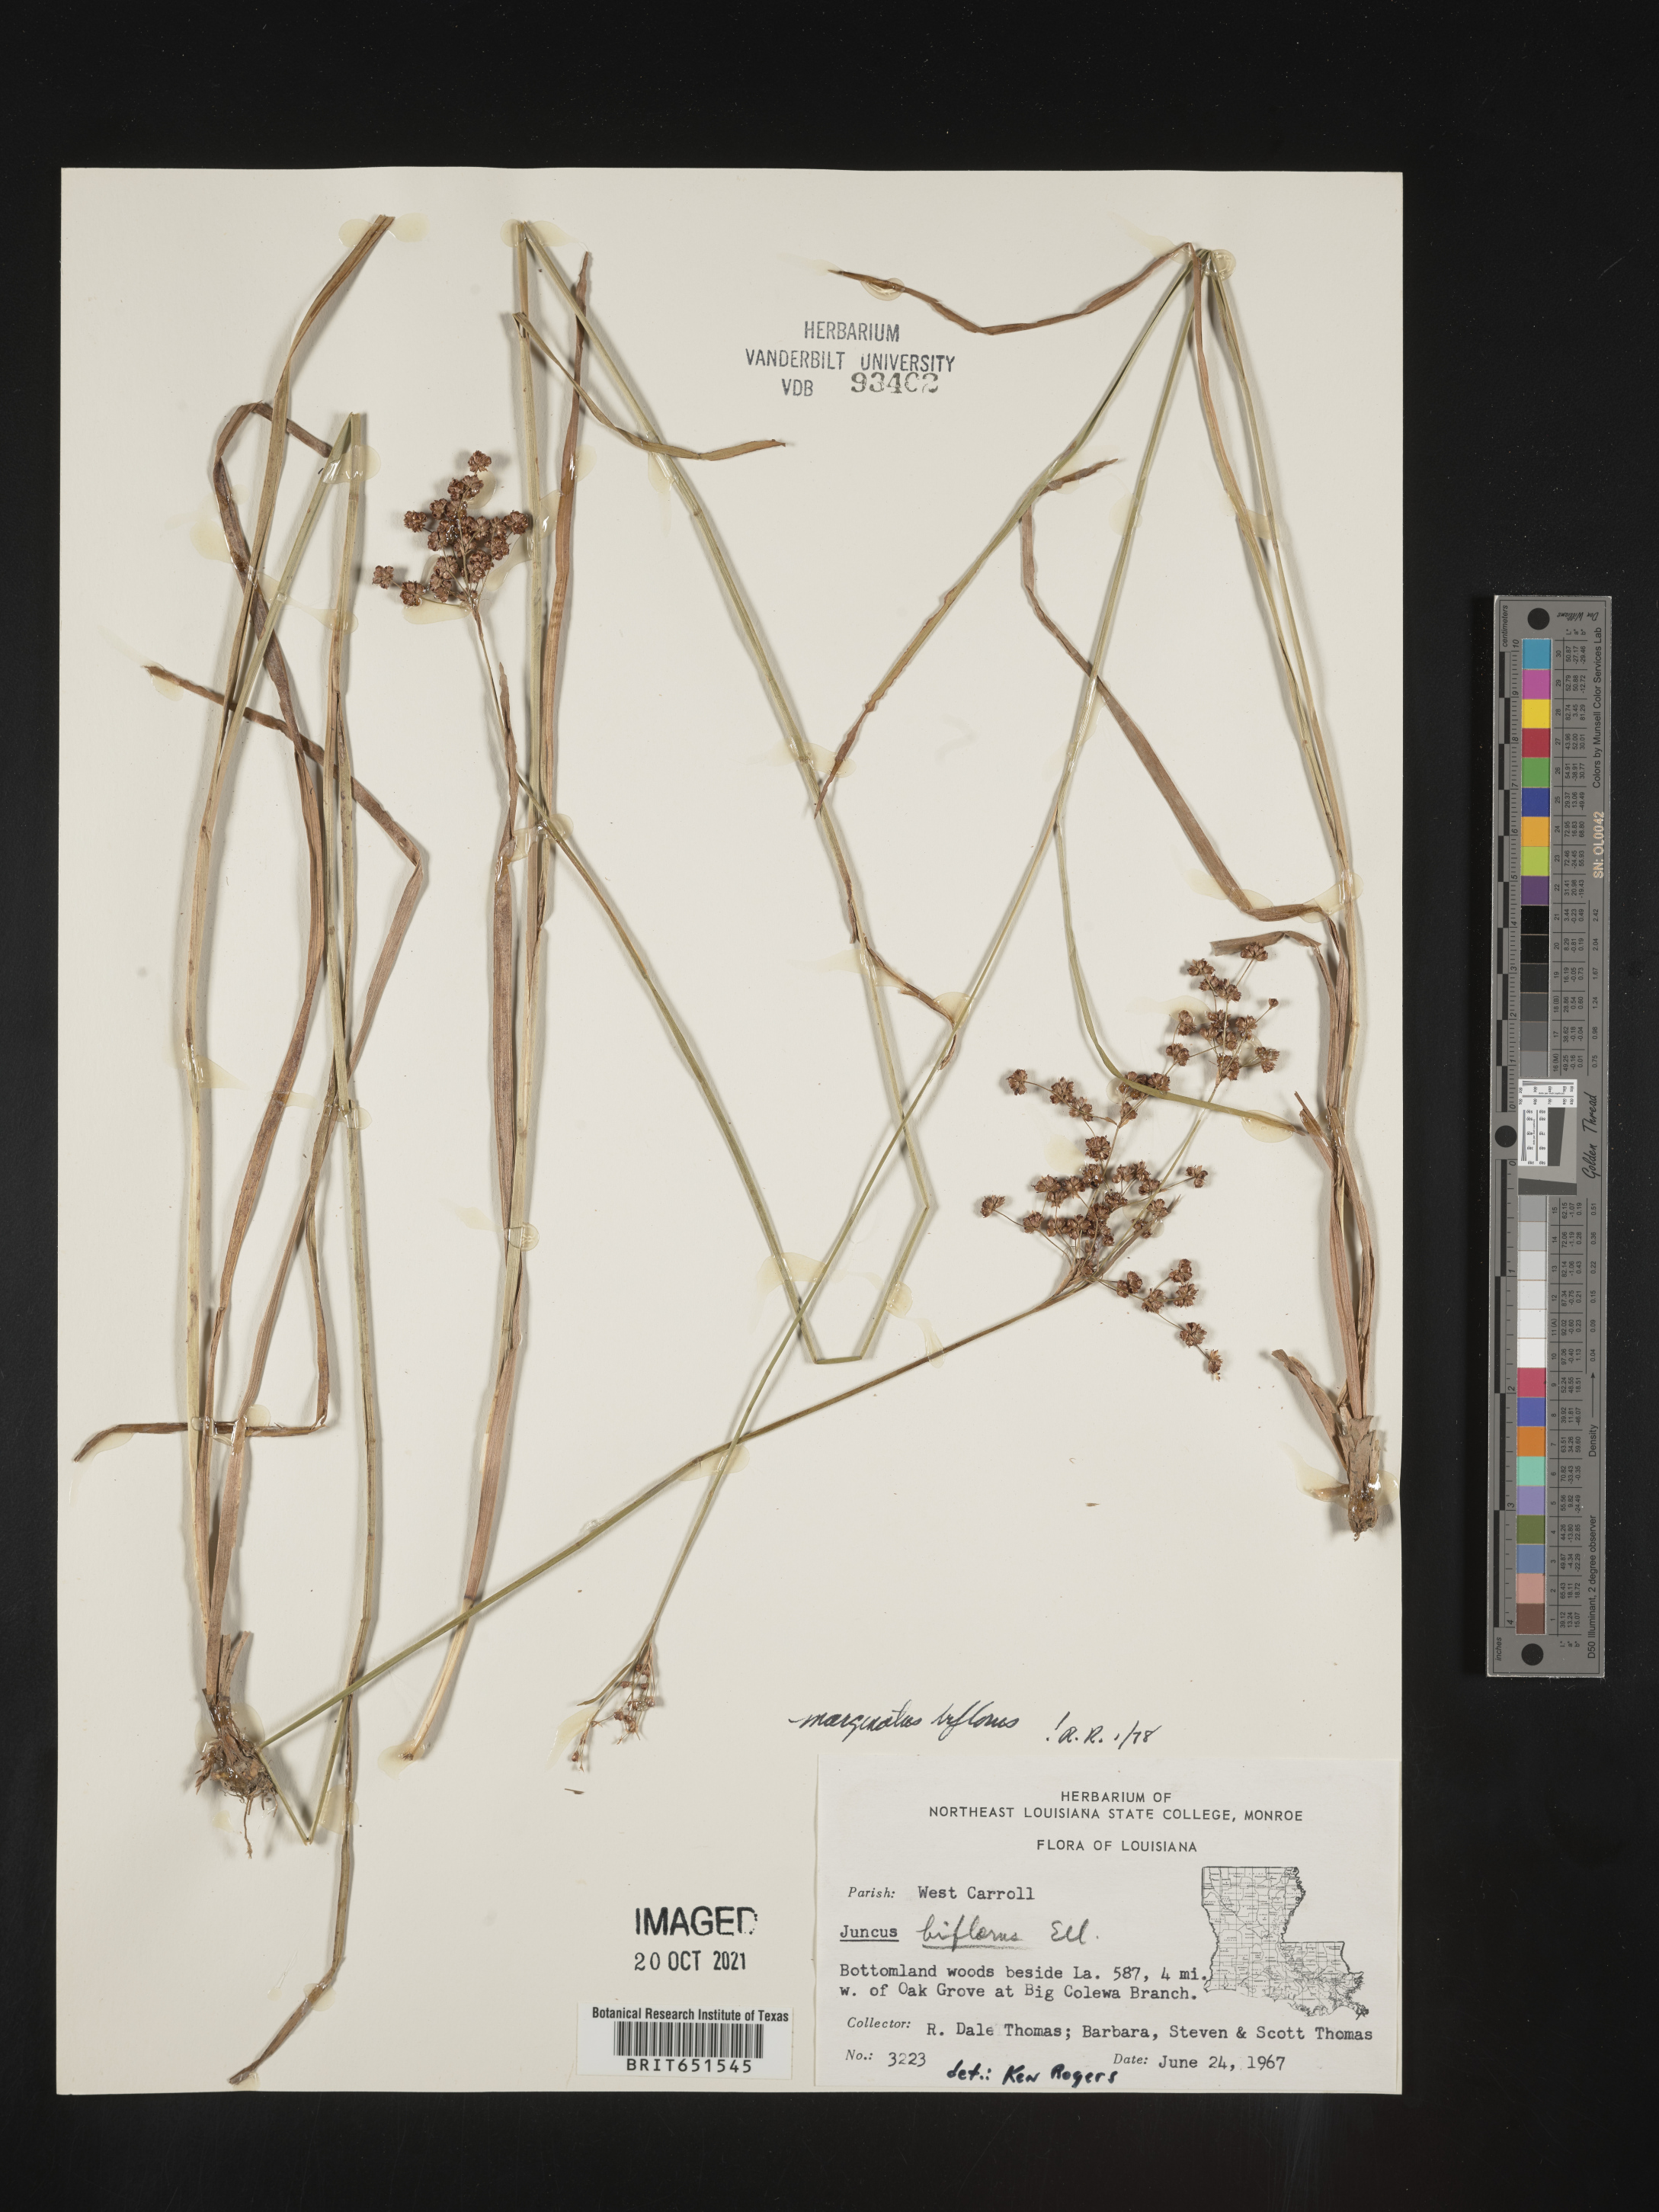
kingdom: Plantae
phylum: Tracheophyta
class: Liliopsida
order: Poales
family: Juncaceae
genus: Juncus
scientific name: Juncus biflorus
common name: Two-flowered rush
